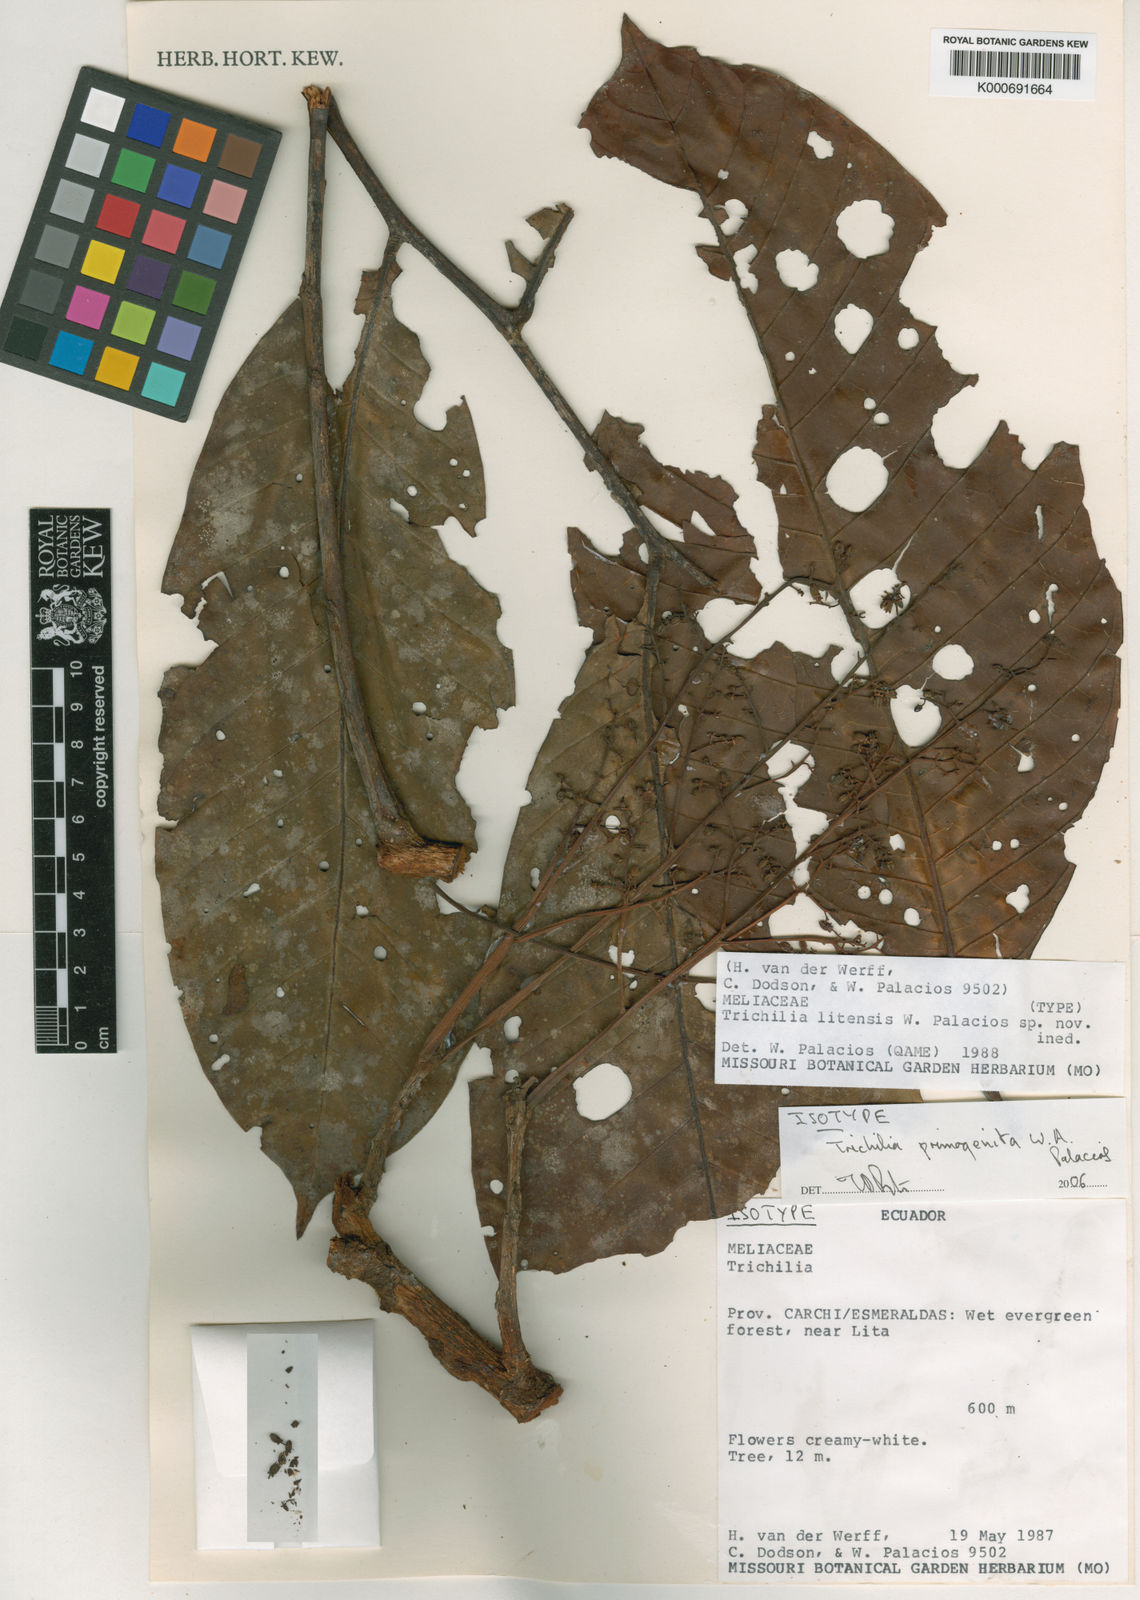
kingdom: Plantae
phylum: Tracheophyta
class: Magnoliopsida
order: Sapindales
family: Meliaceae
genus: Trichilia
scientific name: Trichilia primogenita
